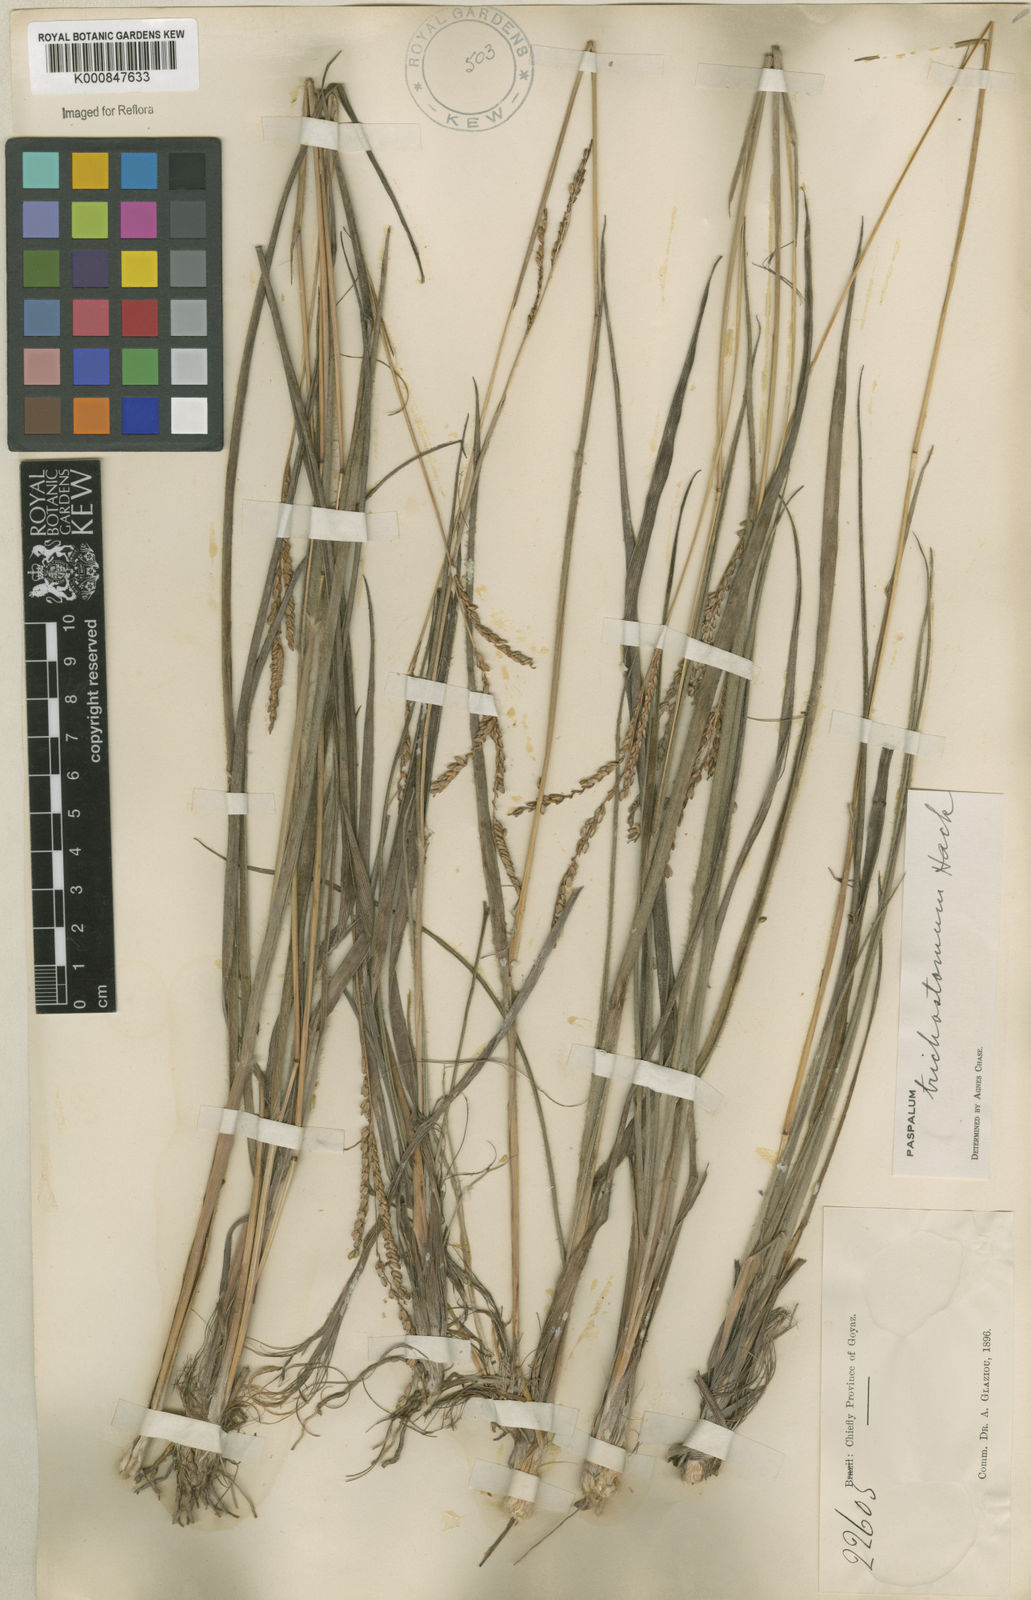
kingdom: Plantae
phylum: Tracheophyta
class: Liliopsida
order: Poales
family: Poaceae
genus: Paspalum
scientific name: Paspalum
